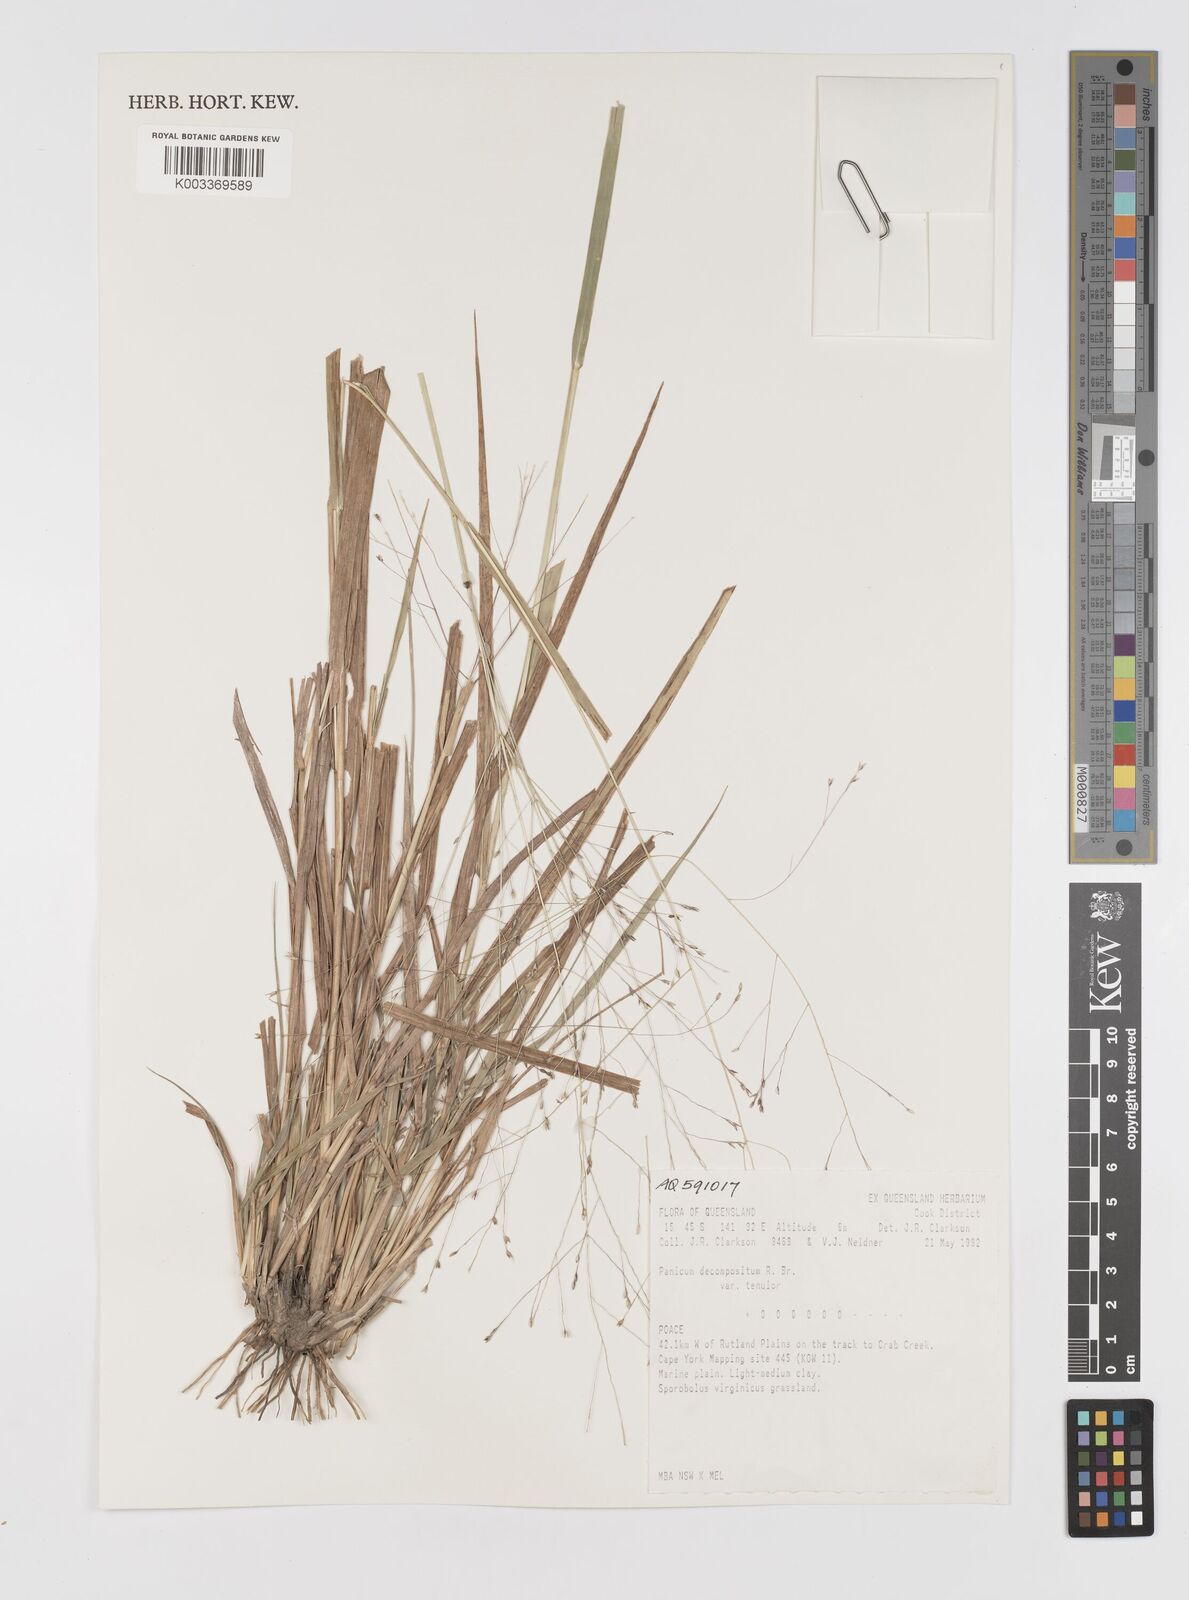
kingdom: Plantae
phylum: Tracheophyta
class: Liliopsida
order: Poales
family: Poaceae
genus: Panicum
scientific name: Panicum decompositum
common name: Australian millet
